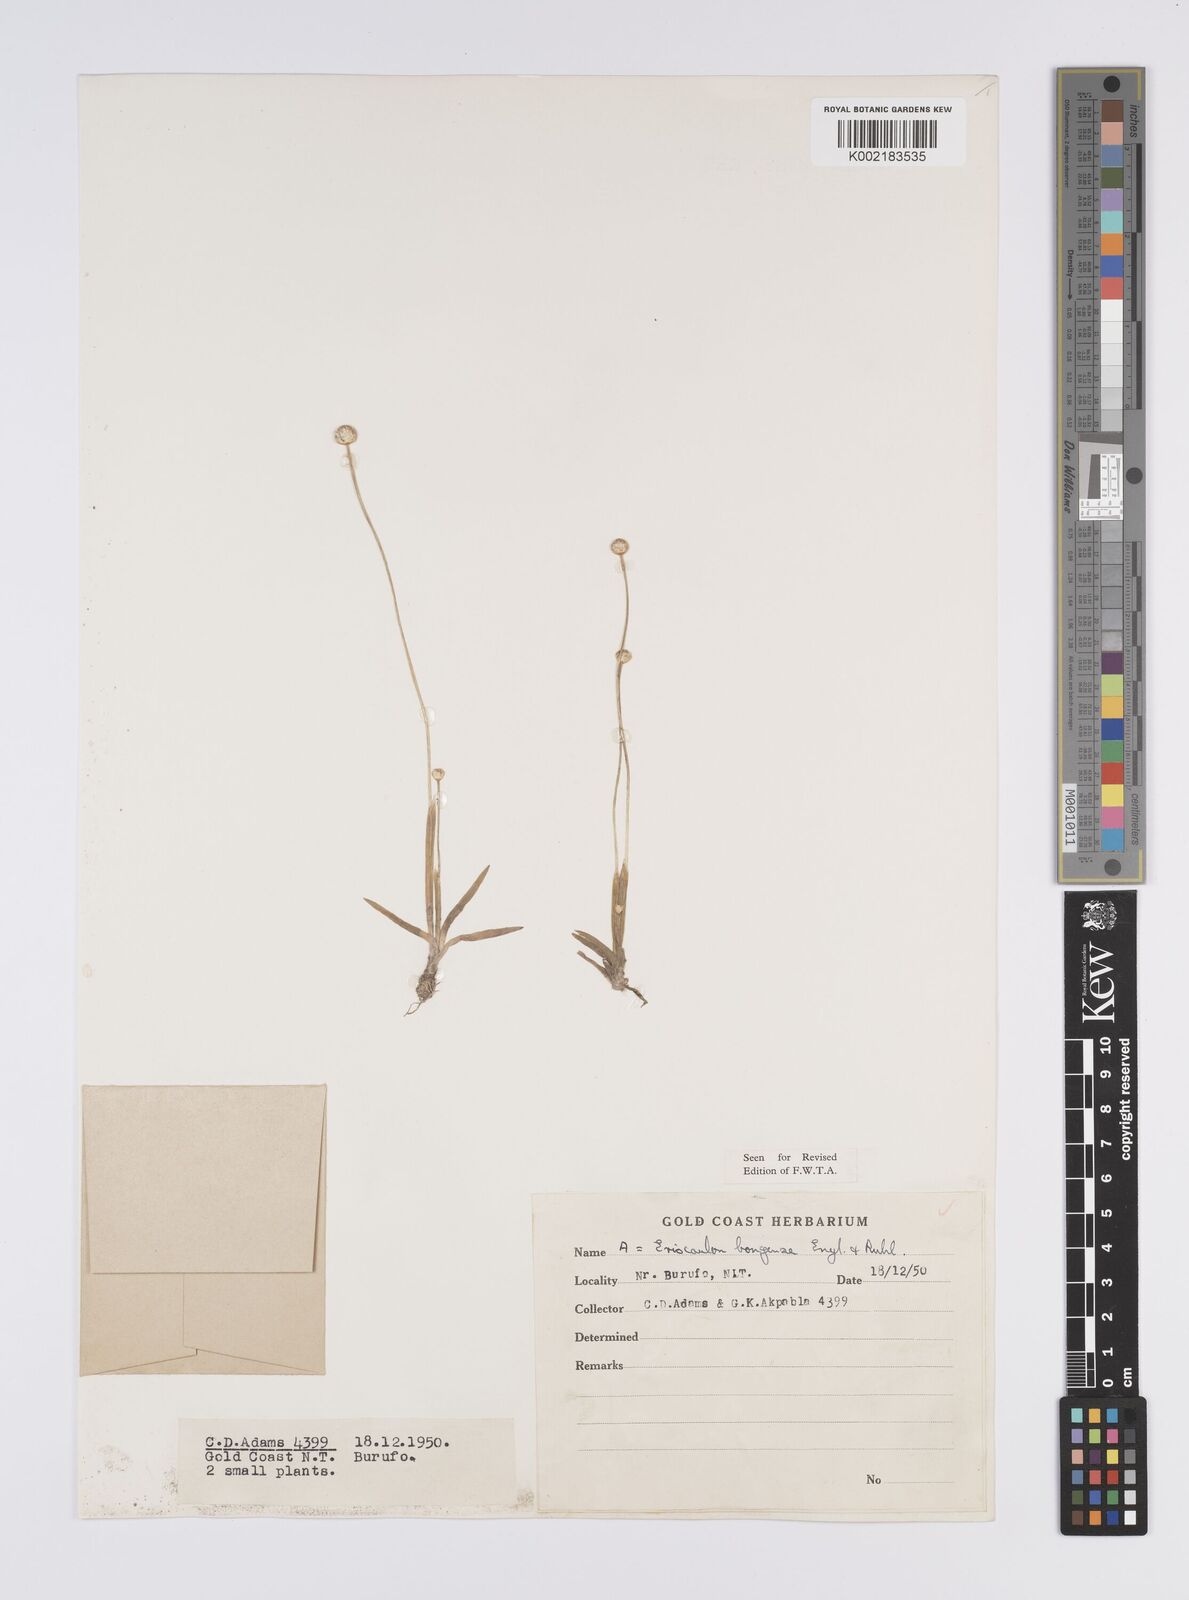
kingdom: Plantae
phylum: Tracheophyta
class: Liliopsida
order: Poales
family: Eriocaulaceae
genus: Eriocaulon
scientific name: Eriocaulon bongense
